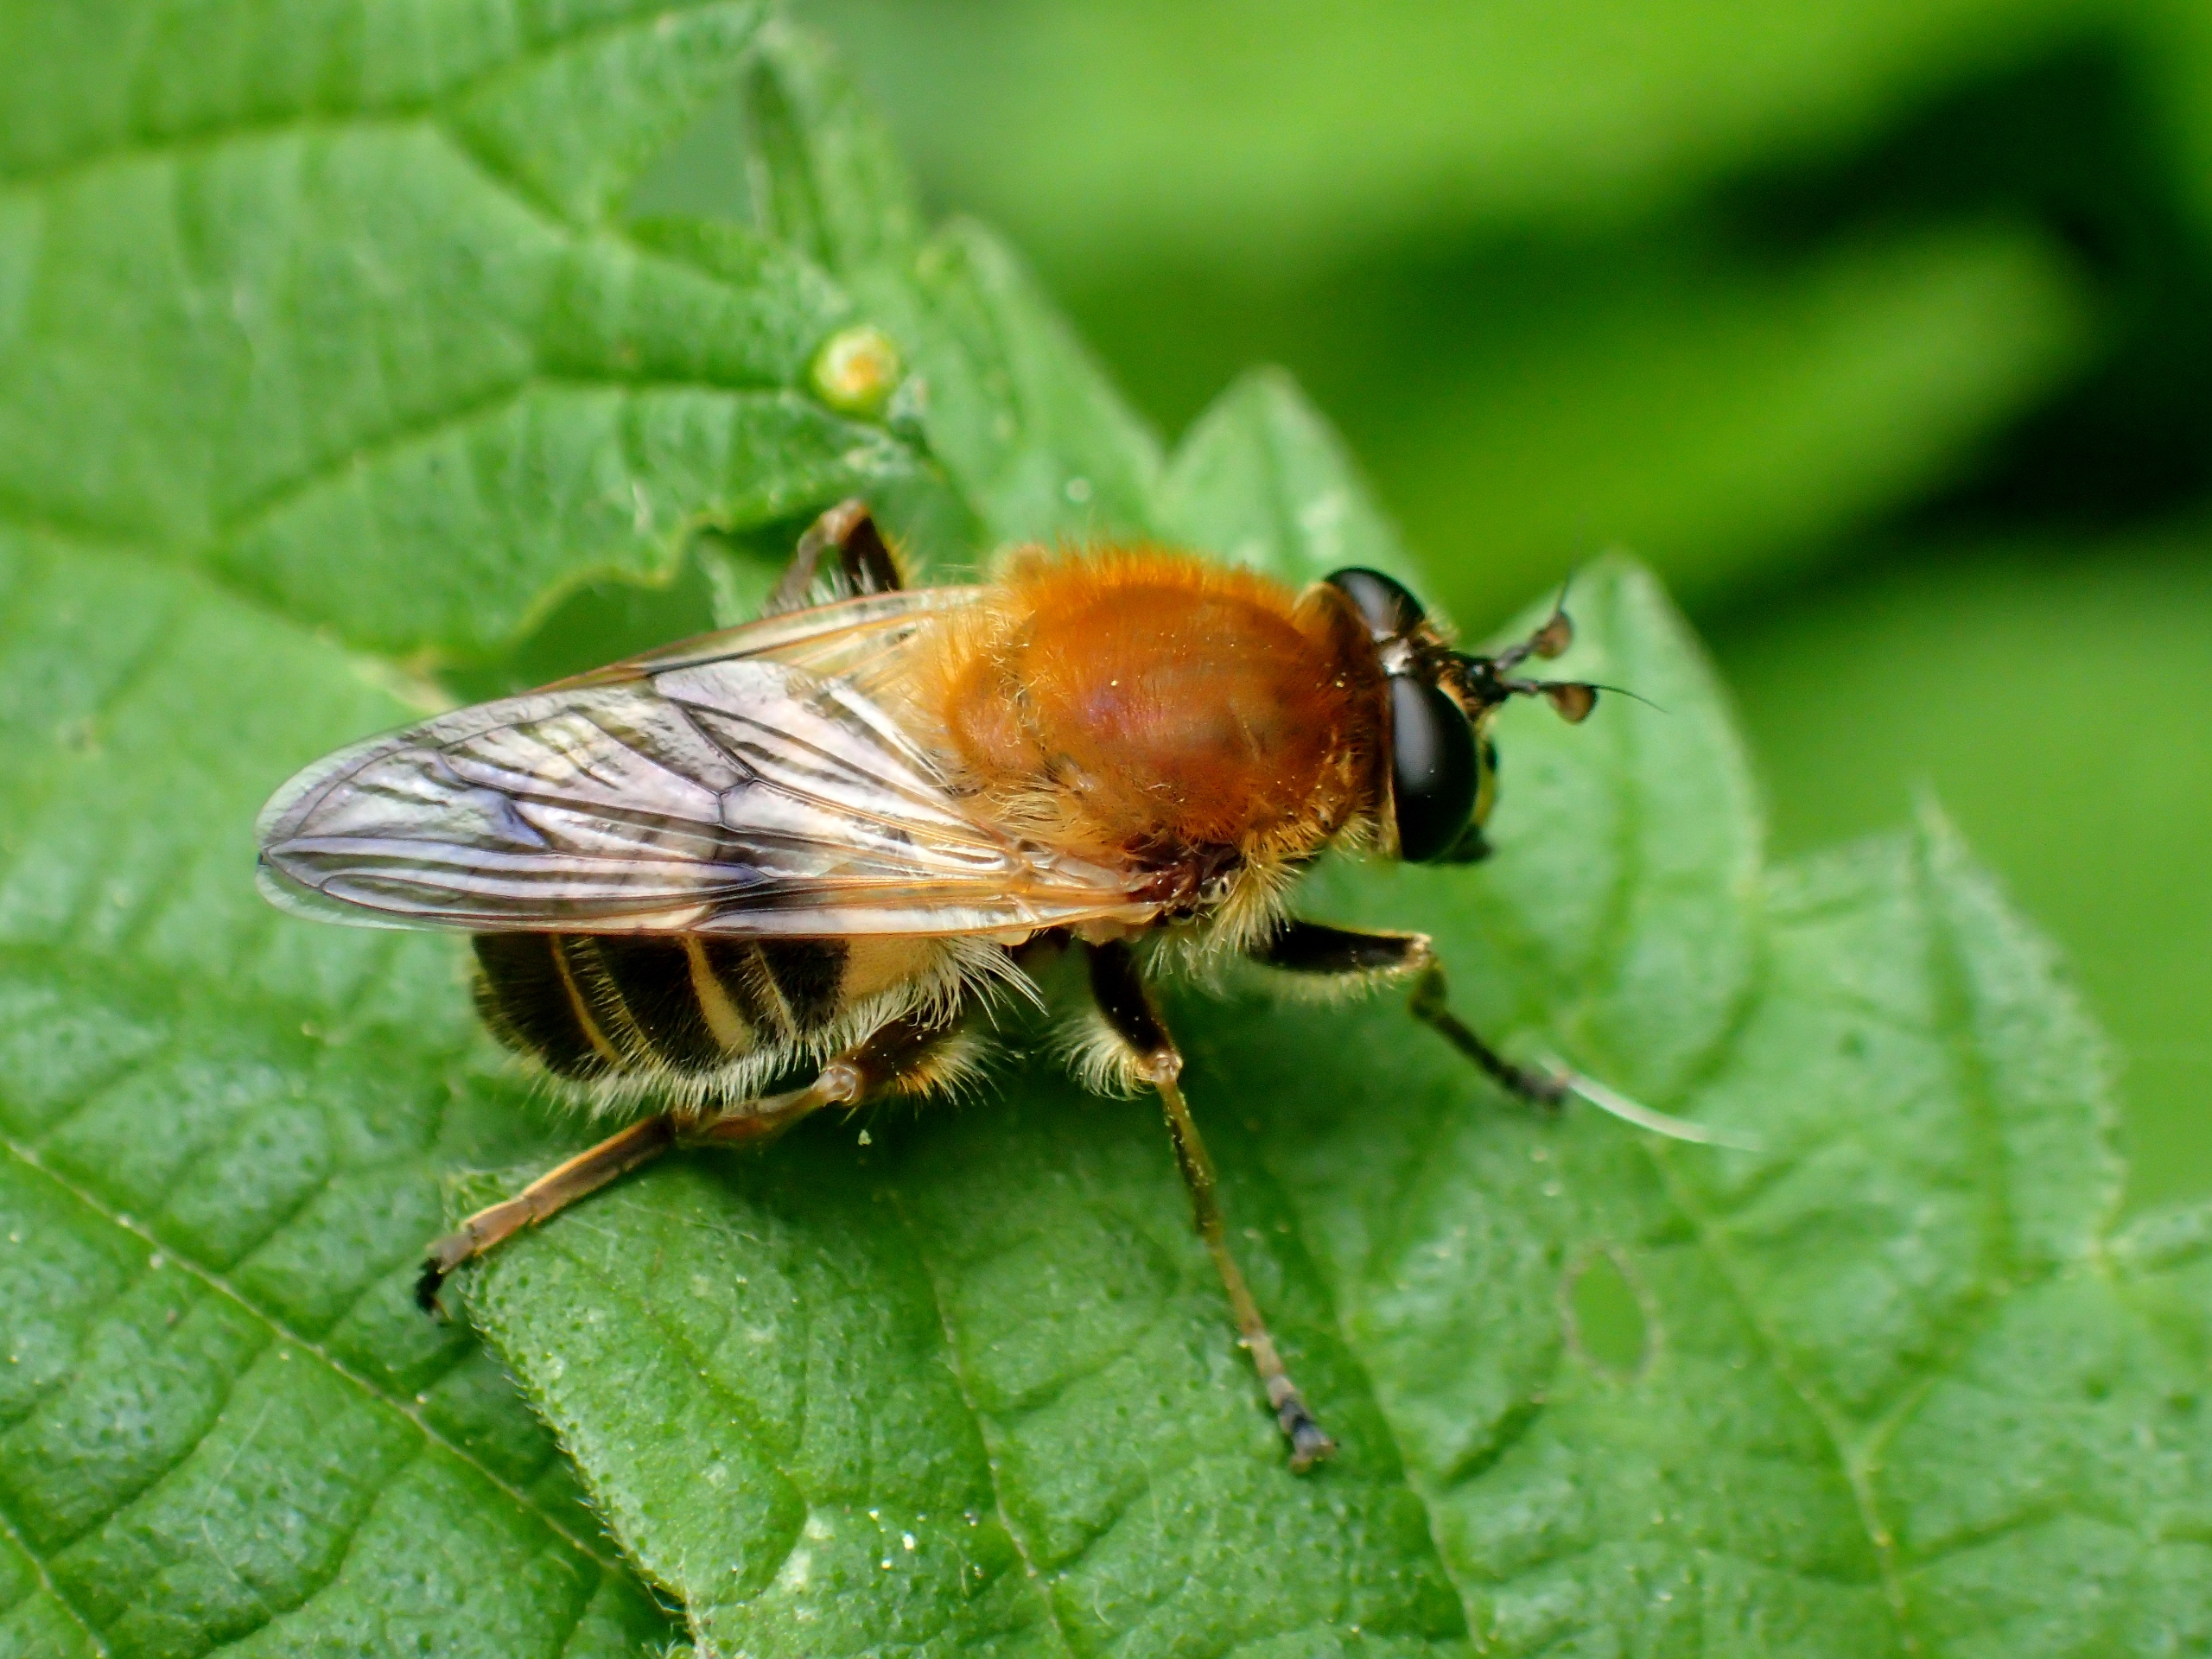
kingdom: Animalia
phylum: Arthropoda
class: Insecta
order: Diptera
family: Syrphidae
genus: Criorhina
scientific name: Criorhina asilica
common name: Bi-pelssvirreflue
